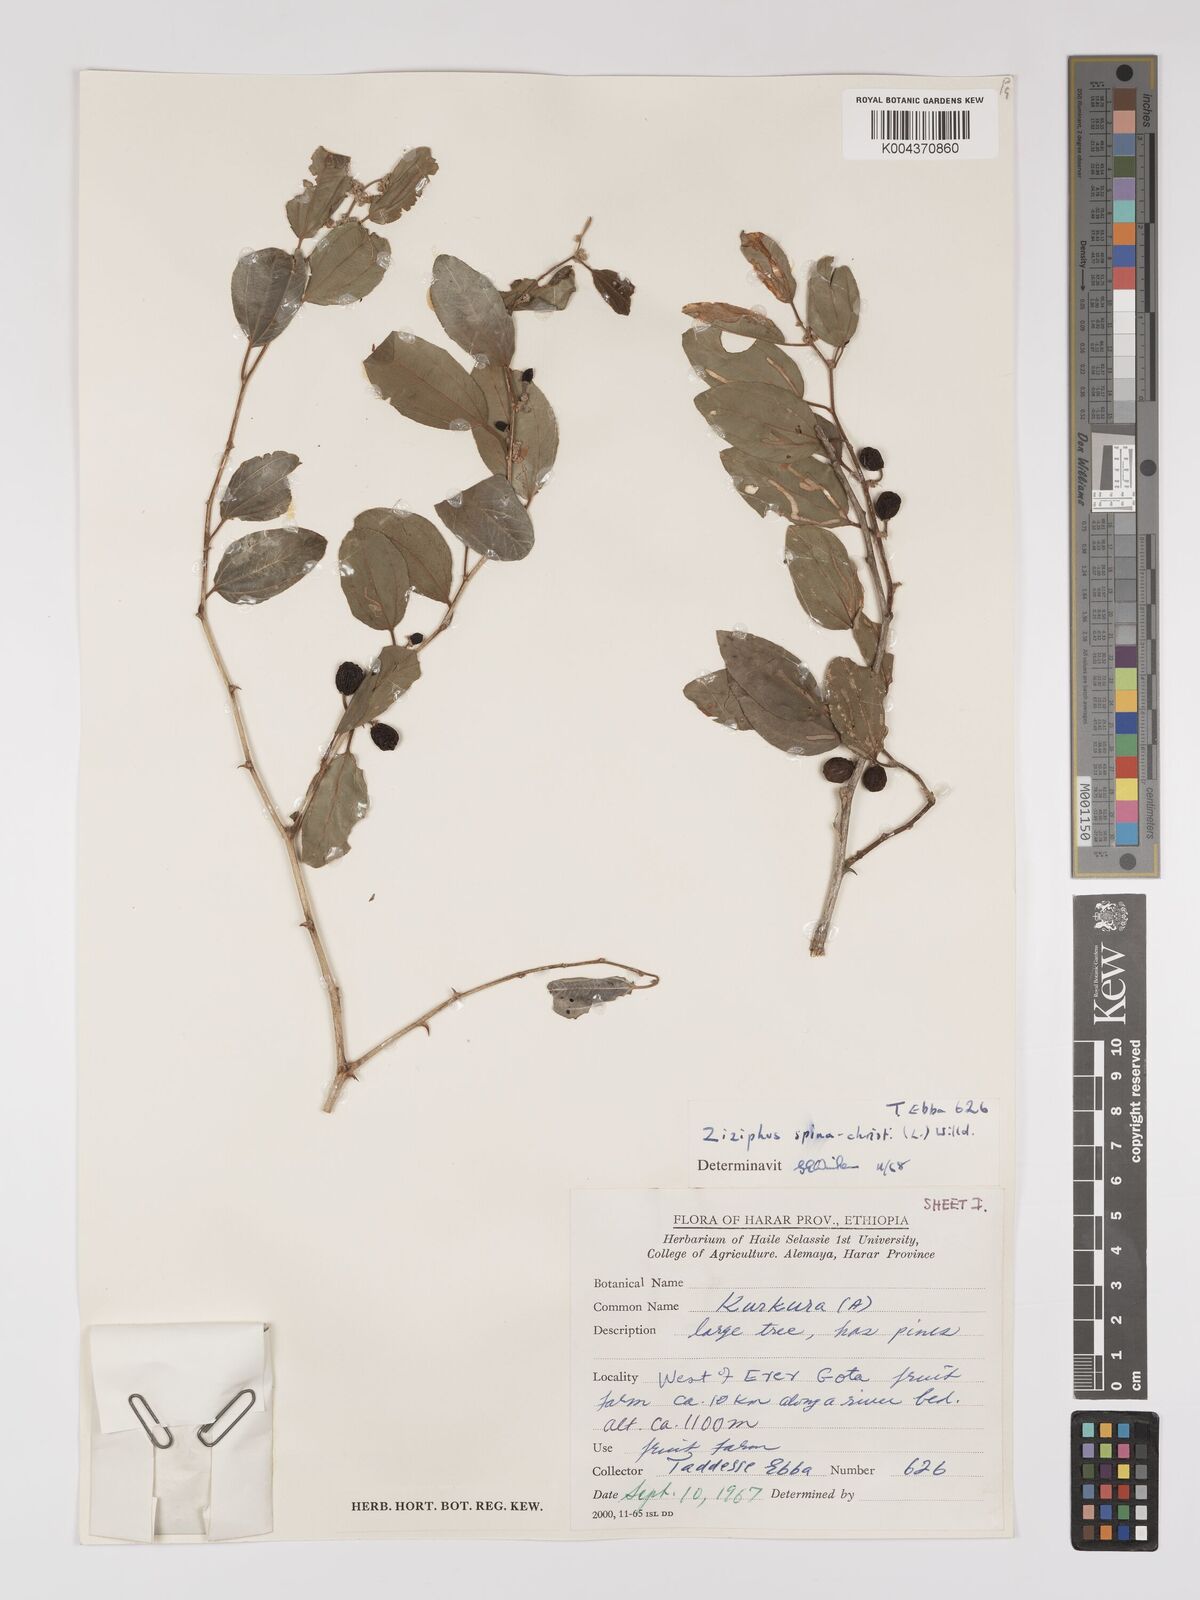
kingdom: Plantae
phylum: Tracheophyta
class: Magnoliopsida
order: Rosales
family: Rhamnaceae
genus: Ziziphus
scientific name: Ziziphus spina-christi
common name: Syrian christ-thorn
